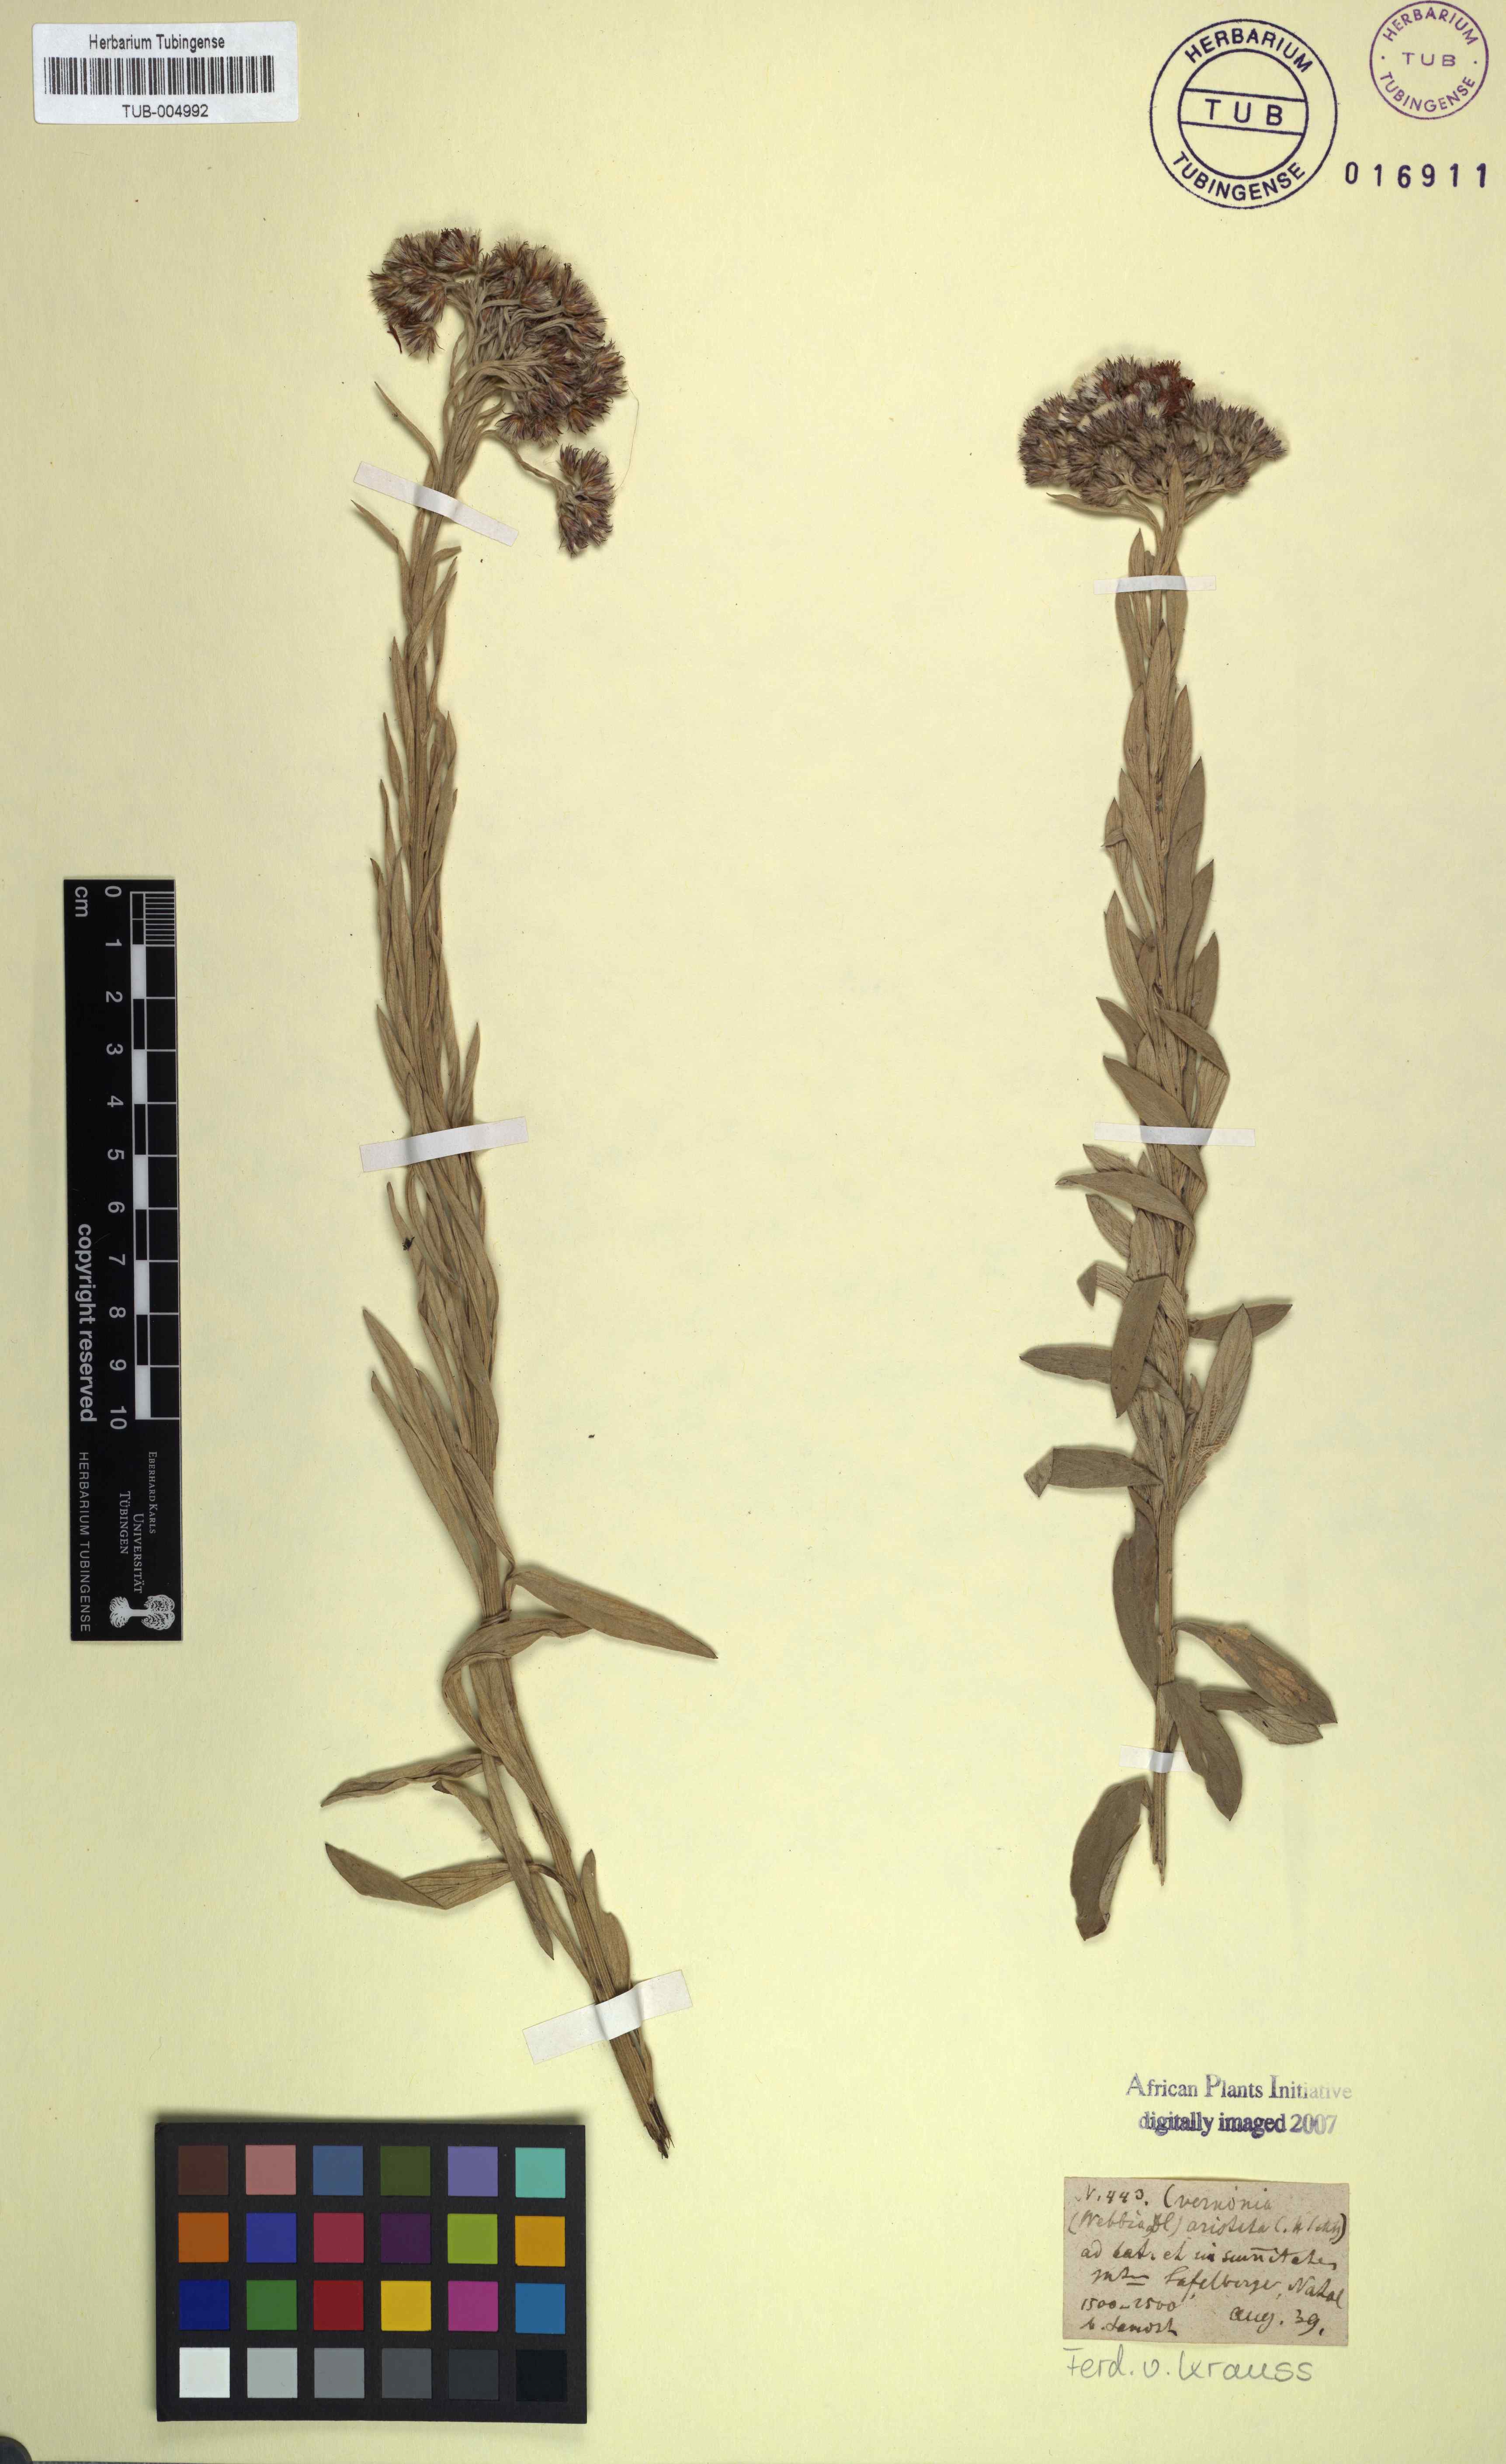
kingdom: Plantae
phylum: Tracheophyta
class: Magnoliopsida
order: Asterales
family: Asteraceae
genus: Hilliardiella
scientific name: Hilliardiella aristata
